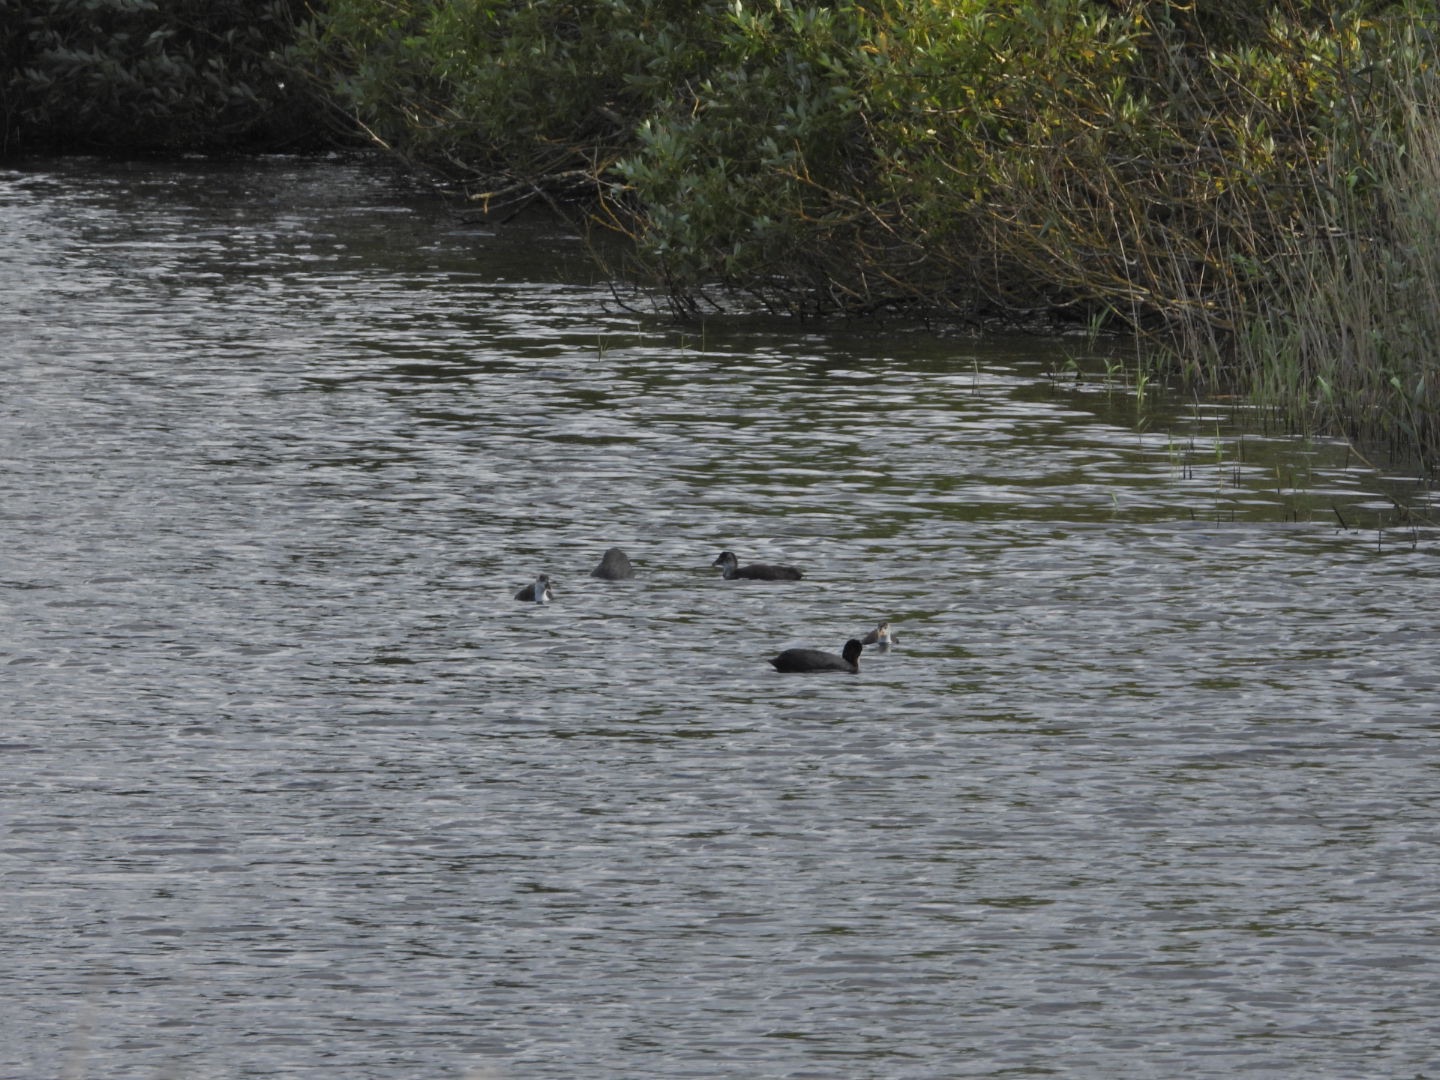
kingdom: Animalia
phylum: Chordata
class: Aves
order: Gruiformes
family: Rallidae
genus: Fulica
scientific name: Fulica atra
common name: Blishøne
